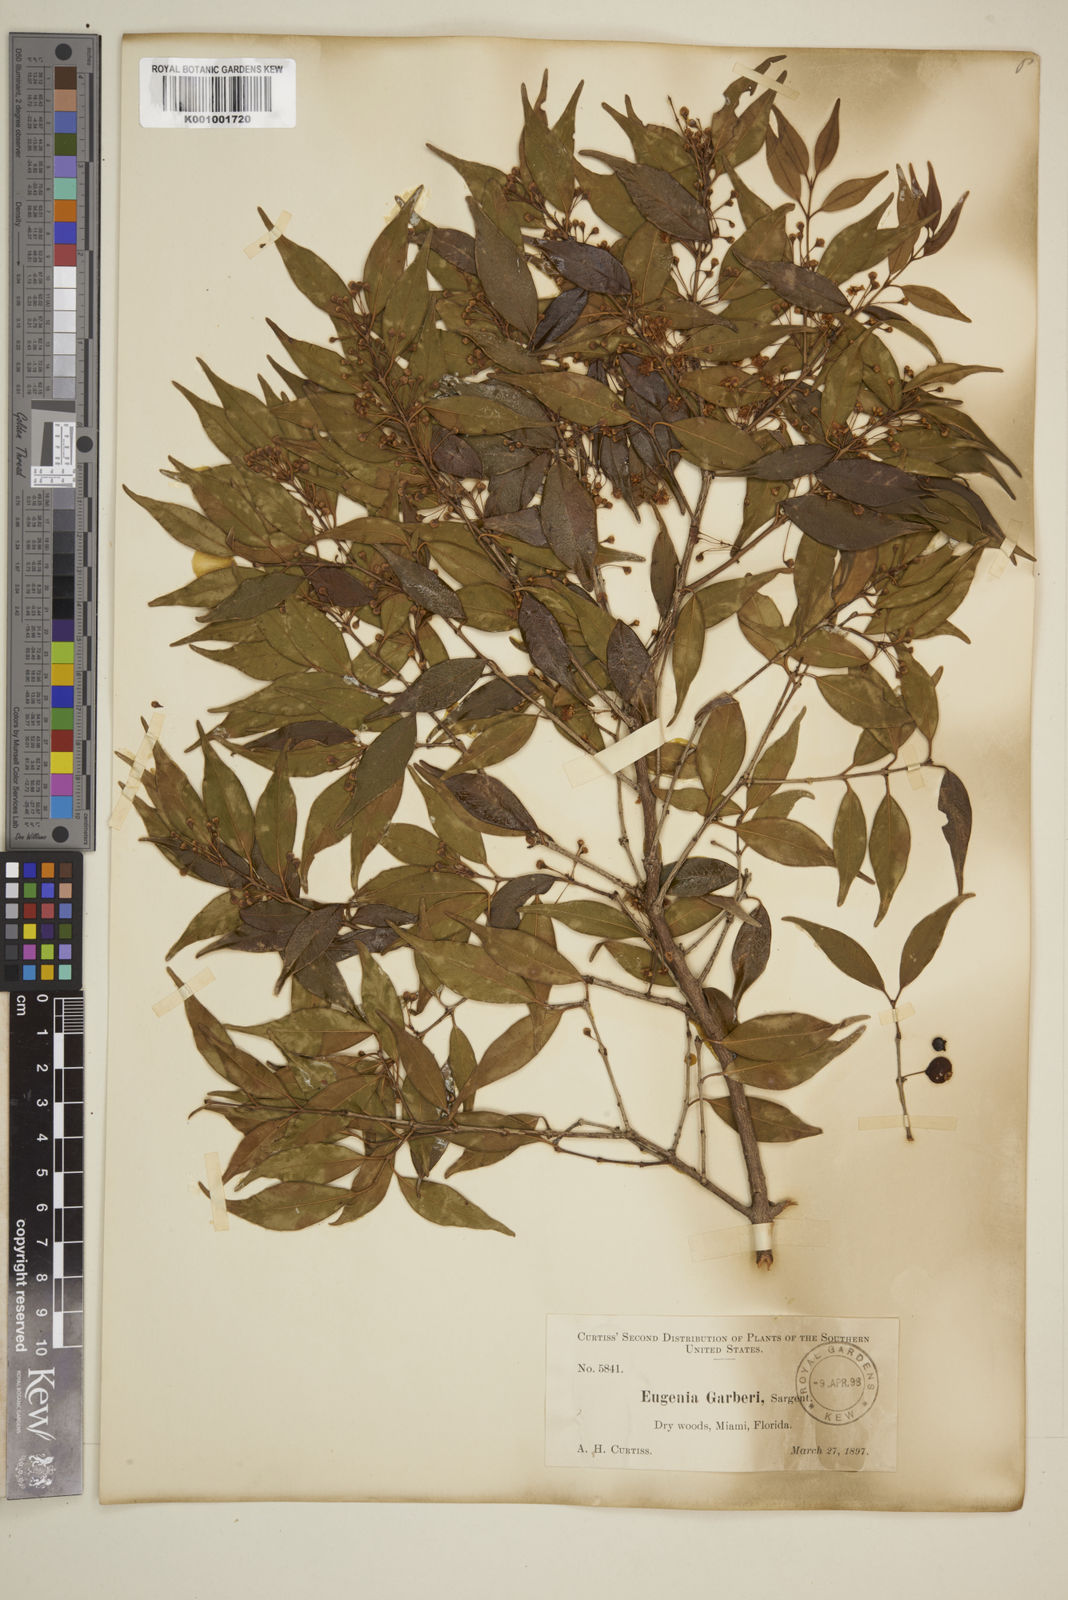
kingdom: Plantae
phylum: Tracheophyta
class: Magnoliopsida
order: Myrtales
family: Myrtaceae
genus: Eugenia
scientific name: Eugenia confusa
